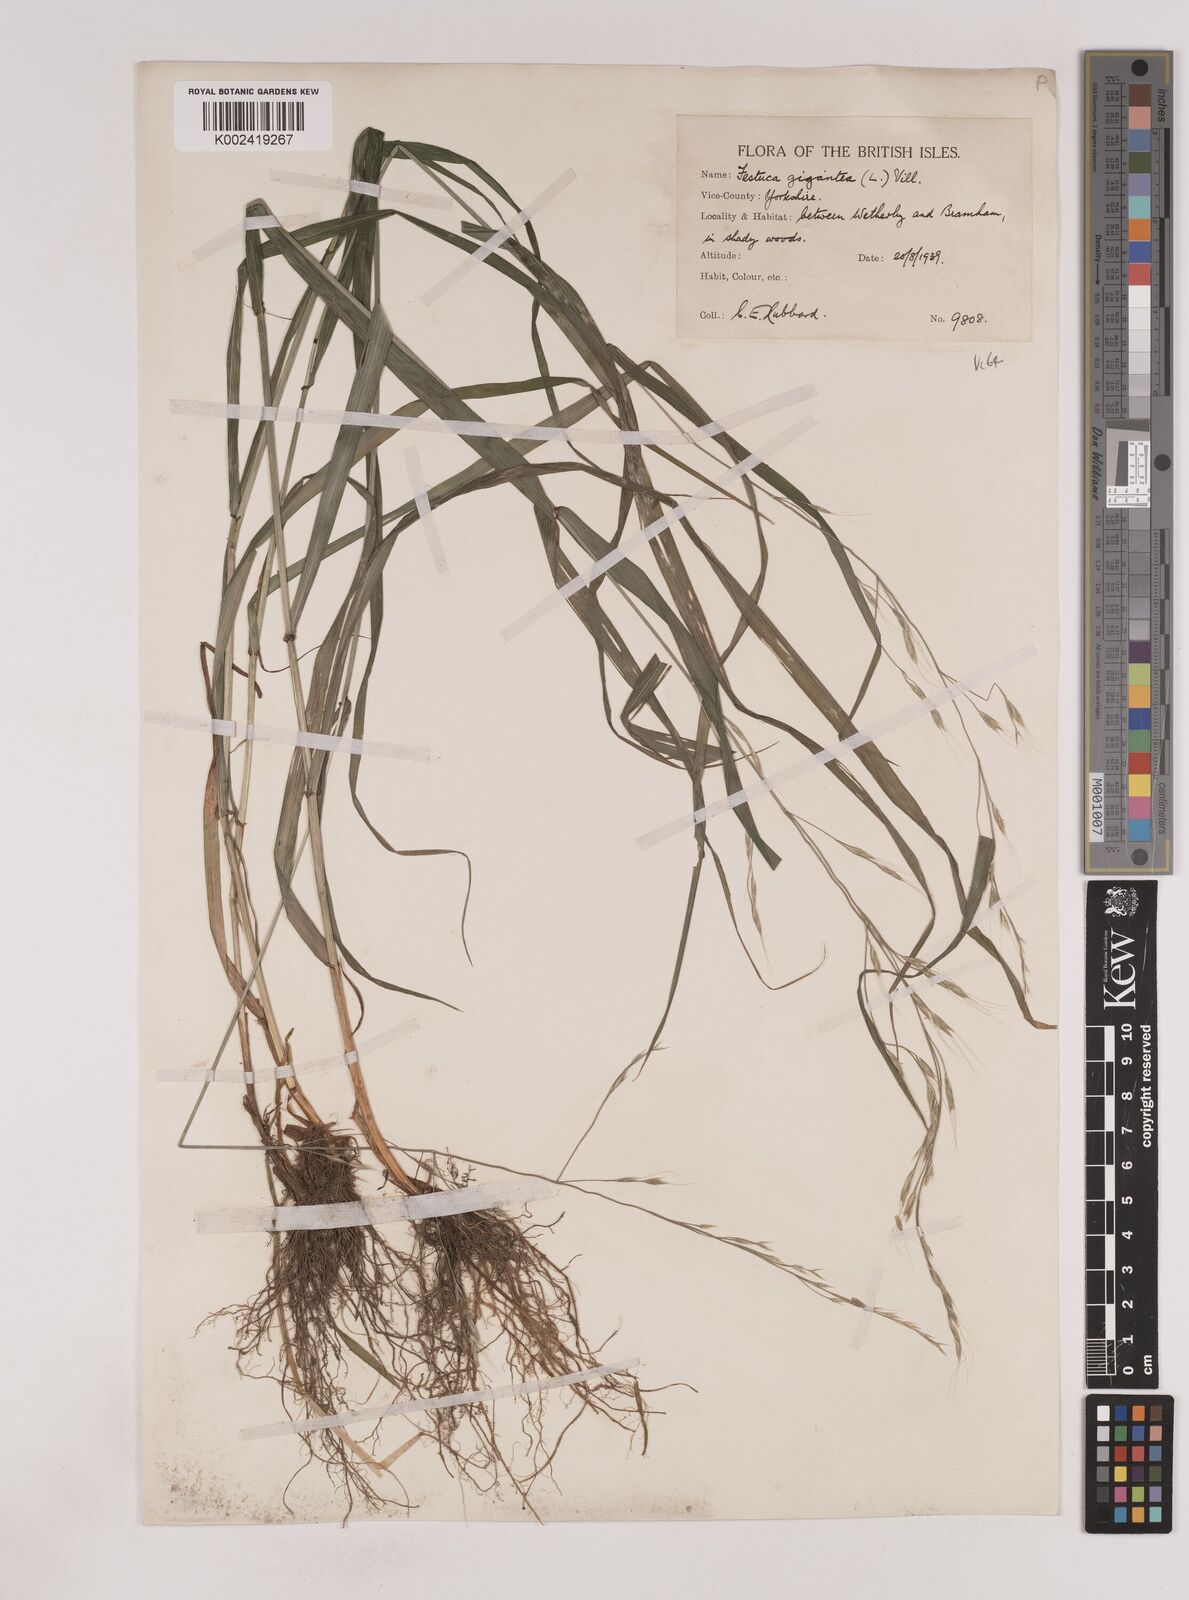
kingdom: Plantae
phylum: Tracheophyta
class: Liliopsida
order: Poales
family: Poaceae
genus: Lolium
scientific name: Lolium giganteum
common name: Giant fescue
